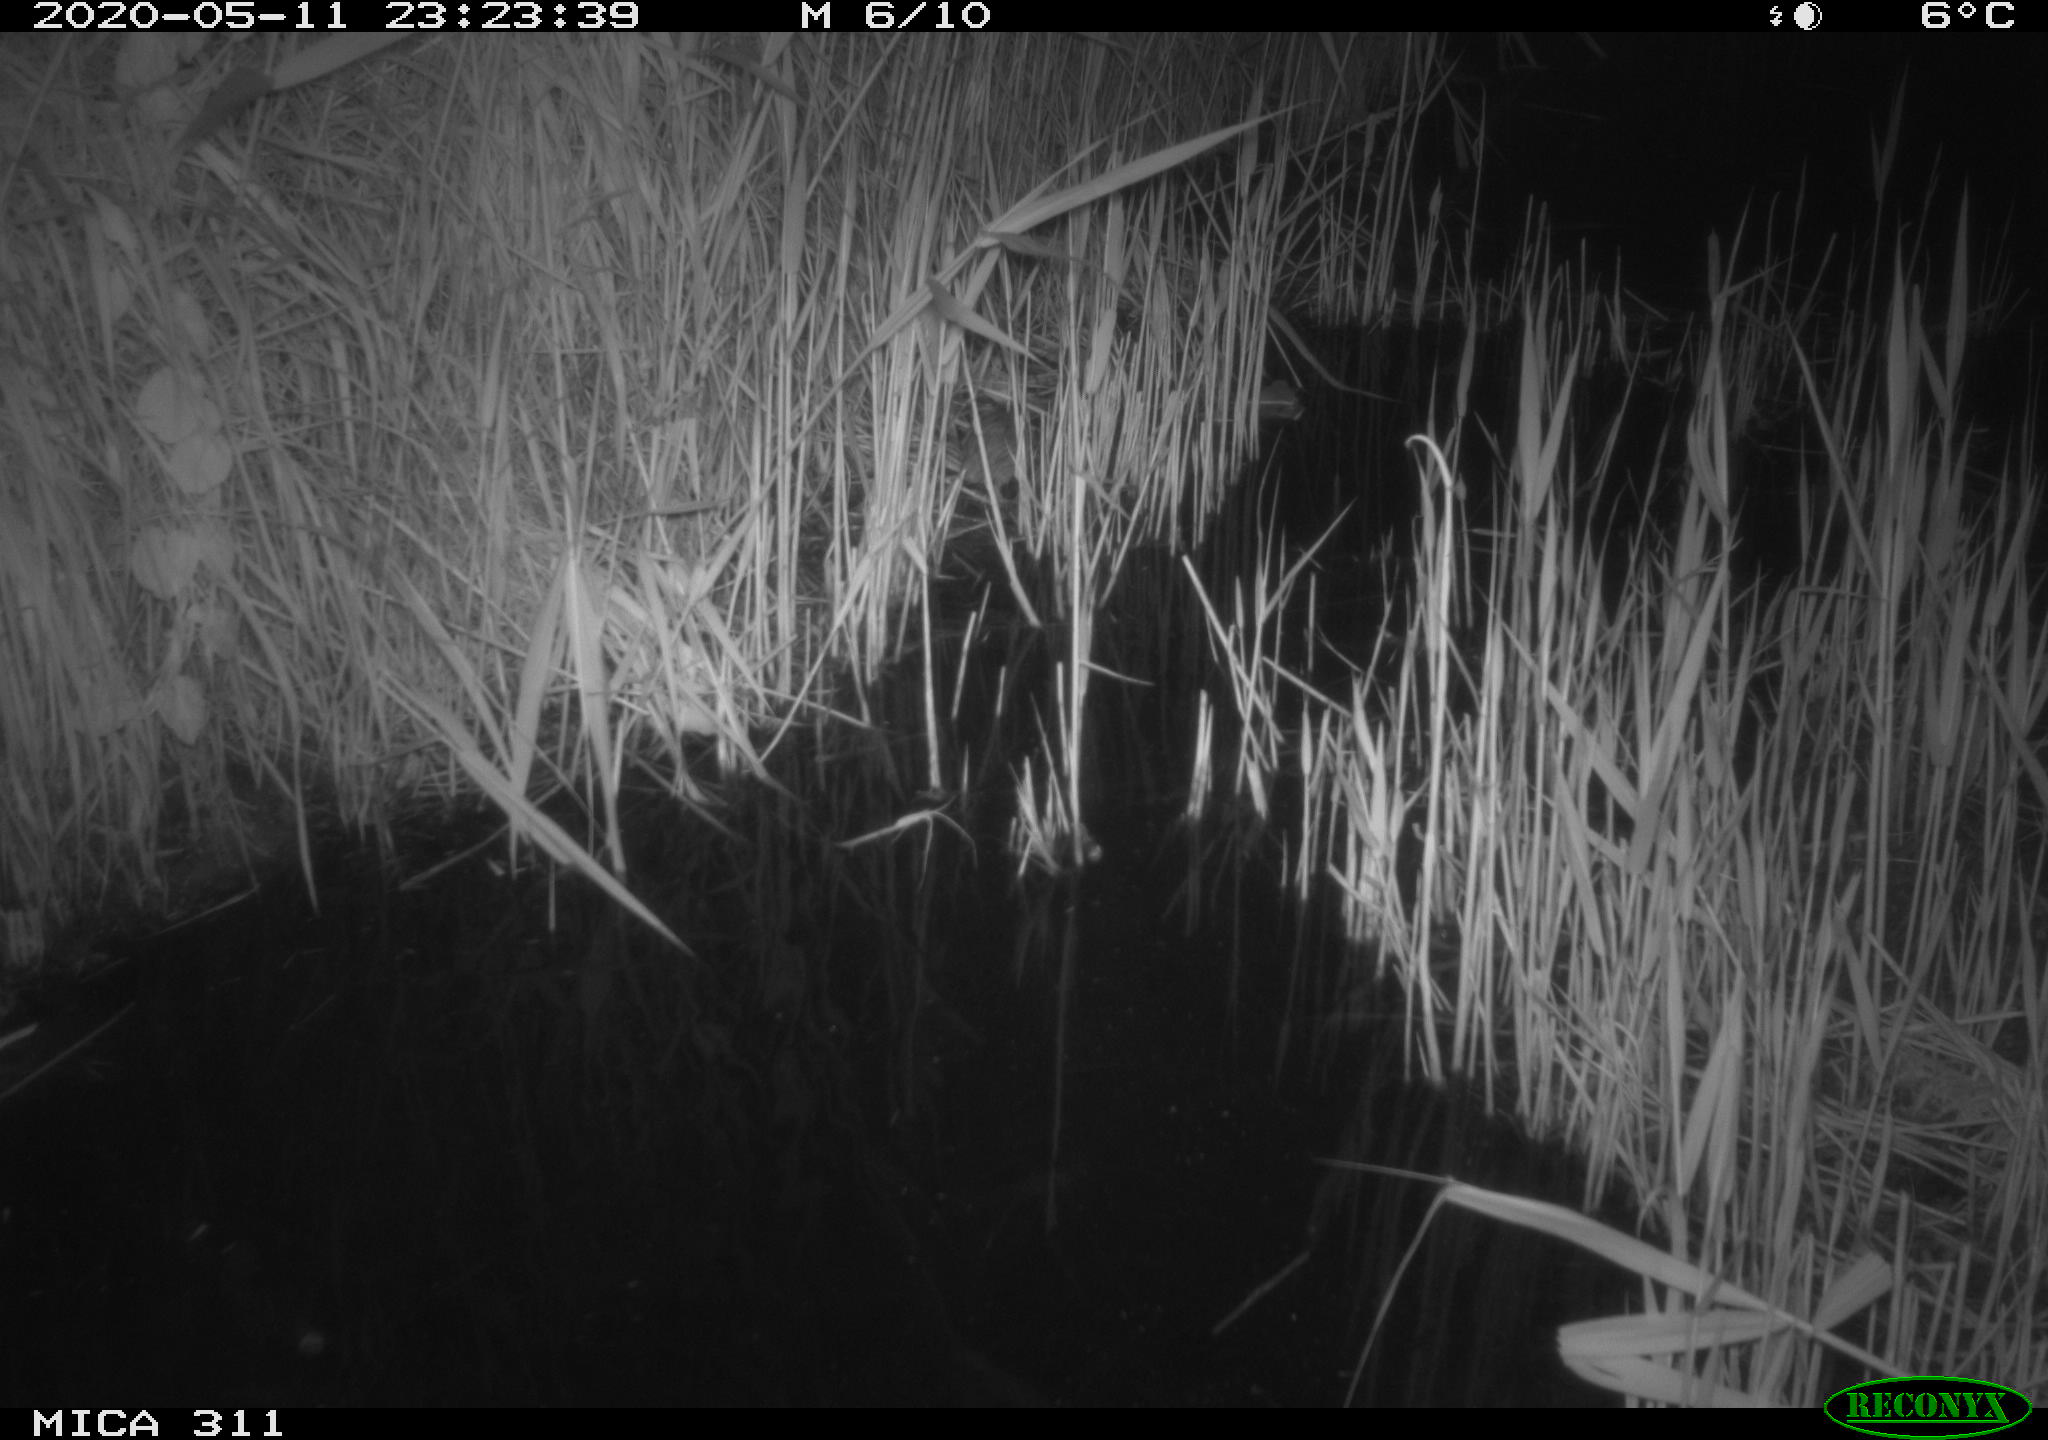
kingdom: Animalia
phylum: Chordata
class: Mammalia
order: Rodentia
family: Muridae
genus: Rattus
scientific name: Rattus norvegicus
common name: Brown rat
